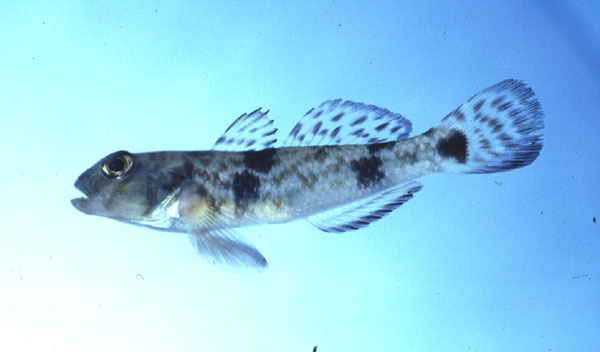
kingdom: Animalia
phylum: Chordata
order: Perciformes
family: Gobiidae
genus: Acentrogobius
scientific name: Acentrogobius nebulosus
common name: Shadow goby
